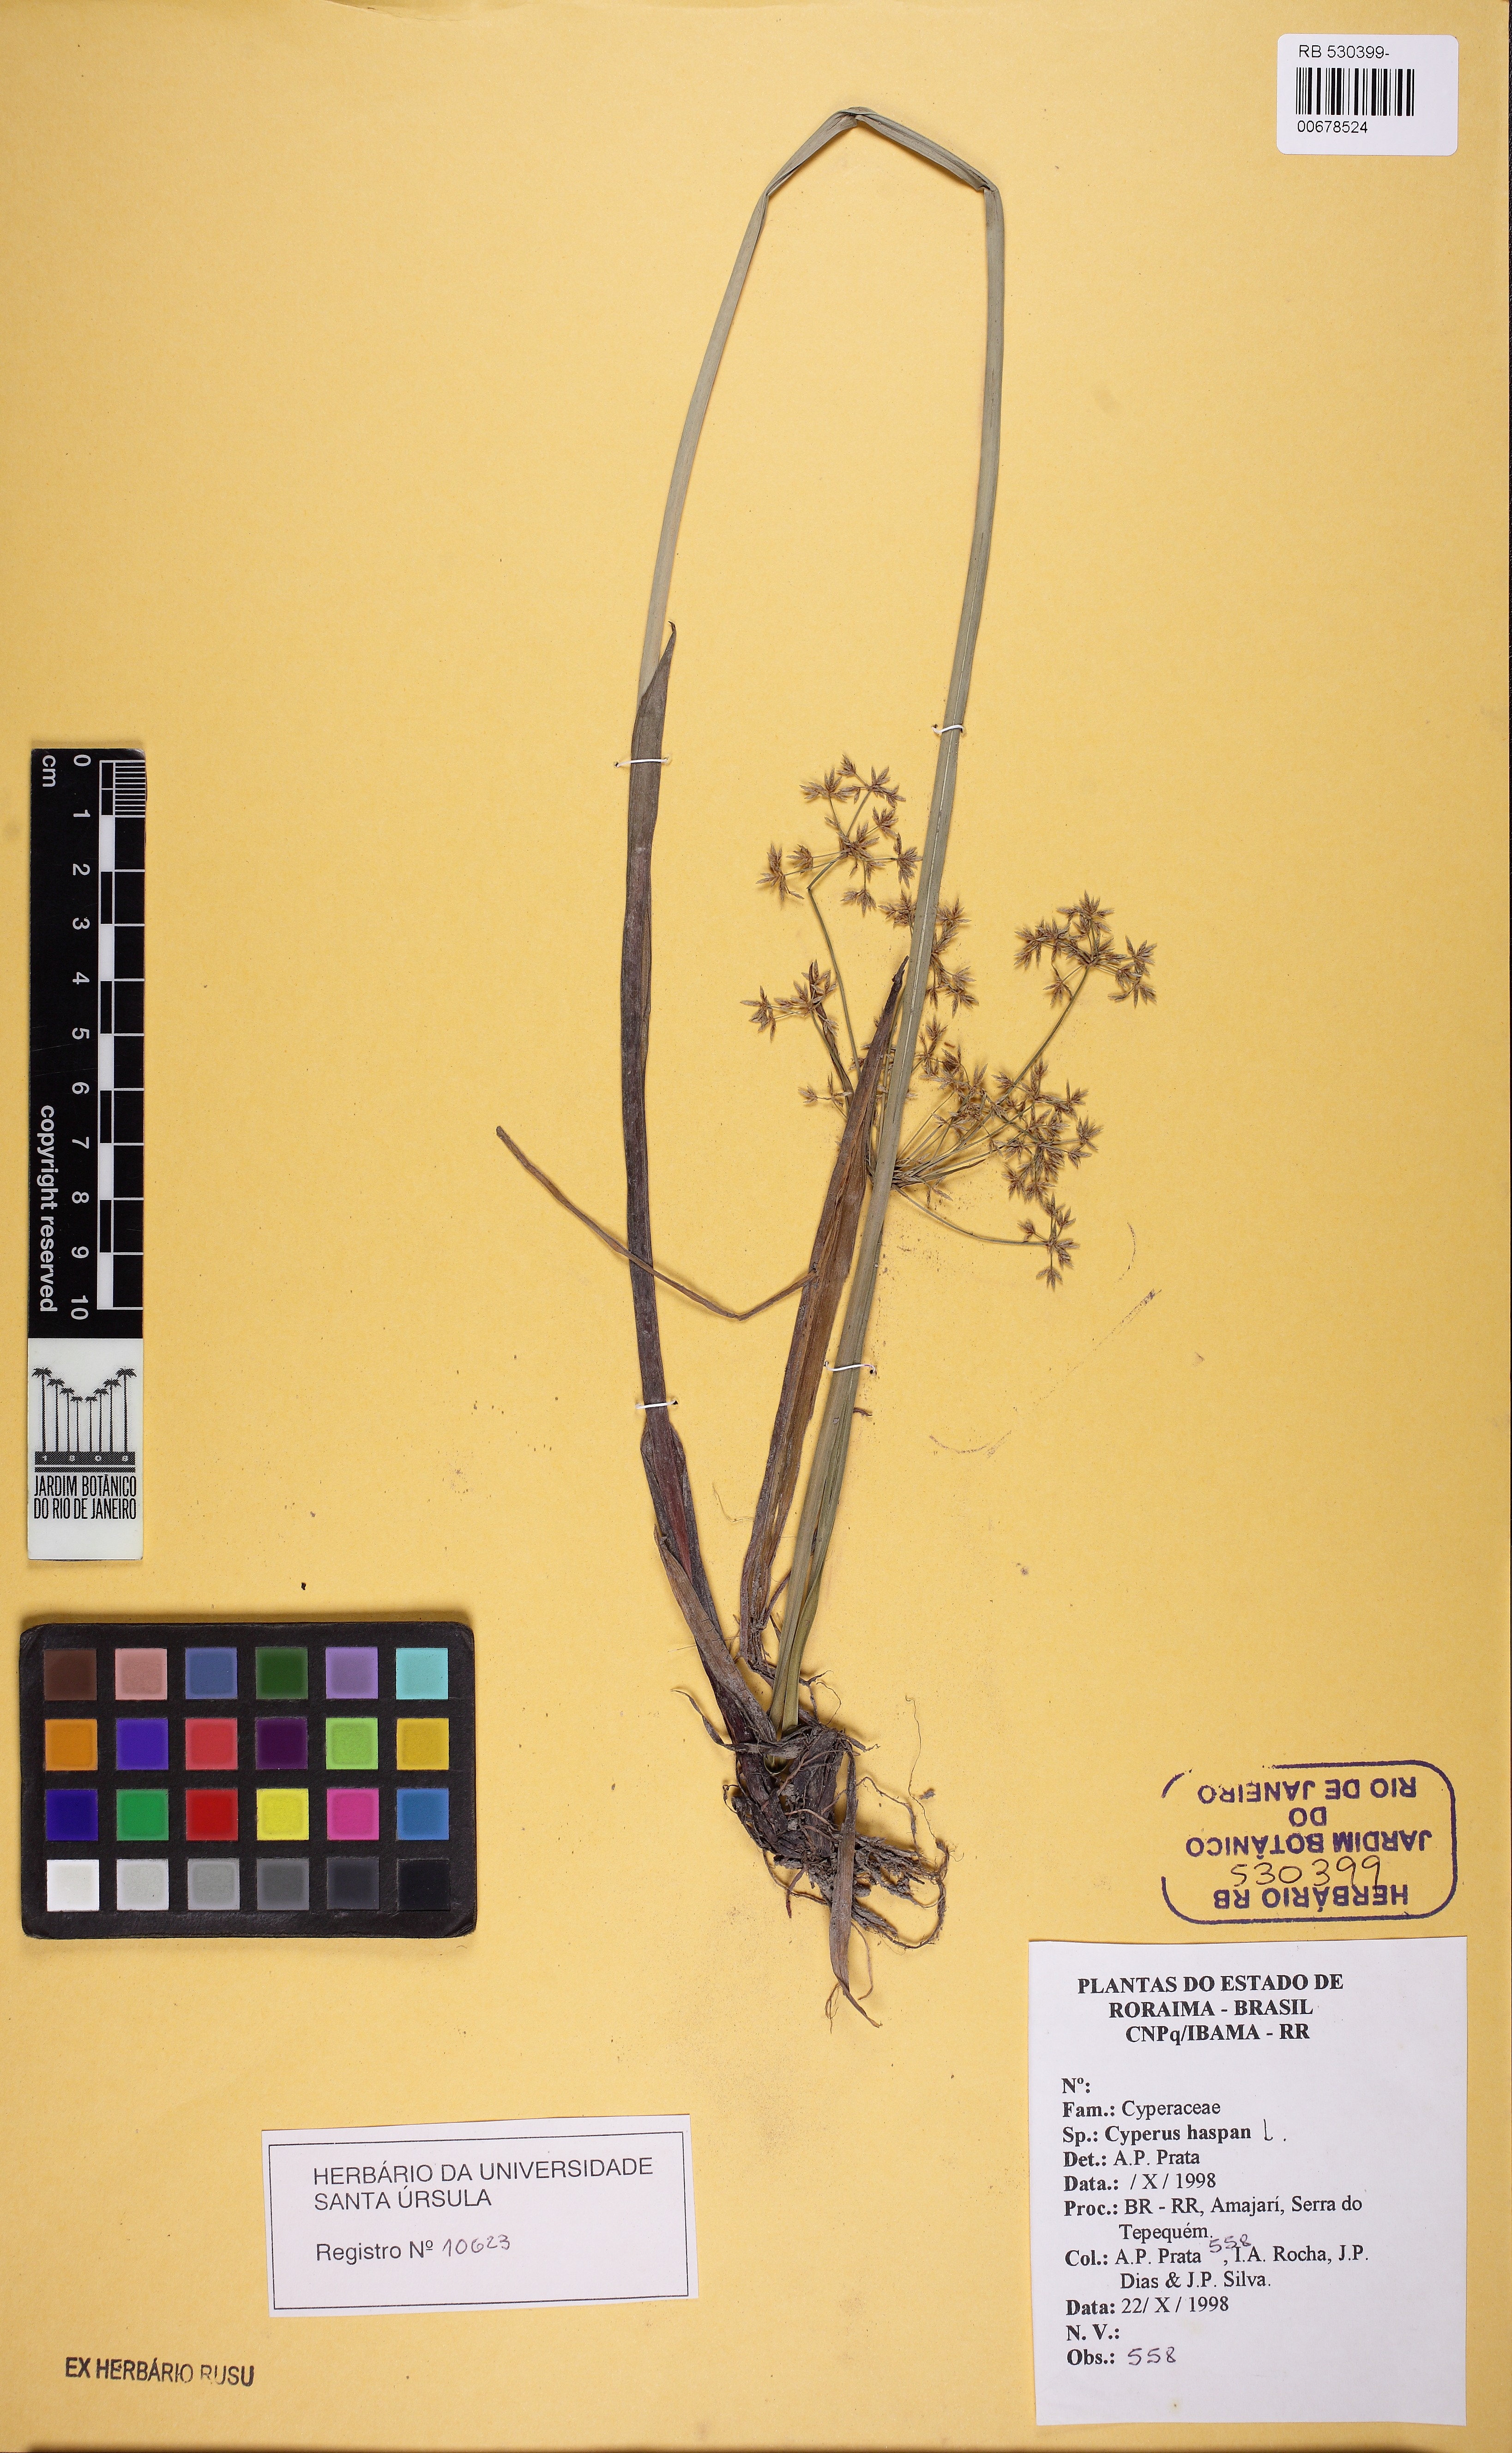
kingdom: Plantae
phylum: Tracheophyta
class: Liliopsida
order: Poales
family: Cyperaceae
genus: Cyperus
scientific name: Cyperus haspan
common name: Haspan flatsedge
